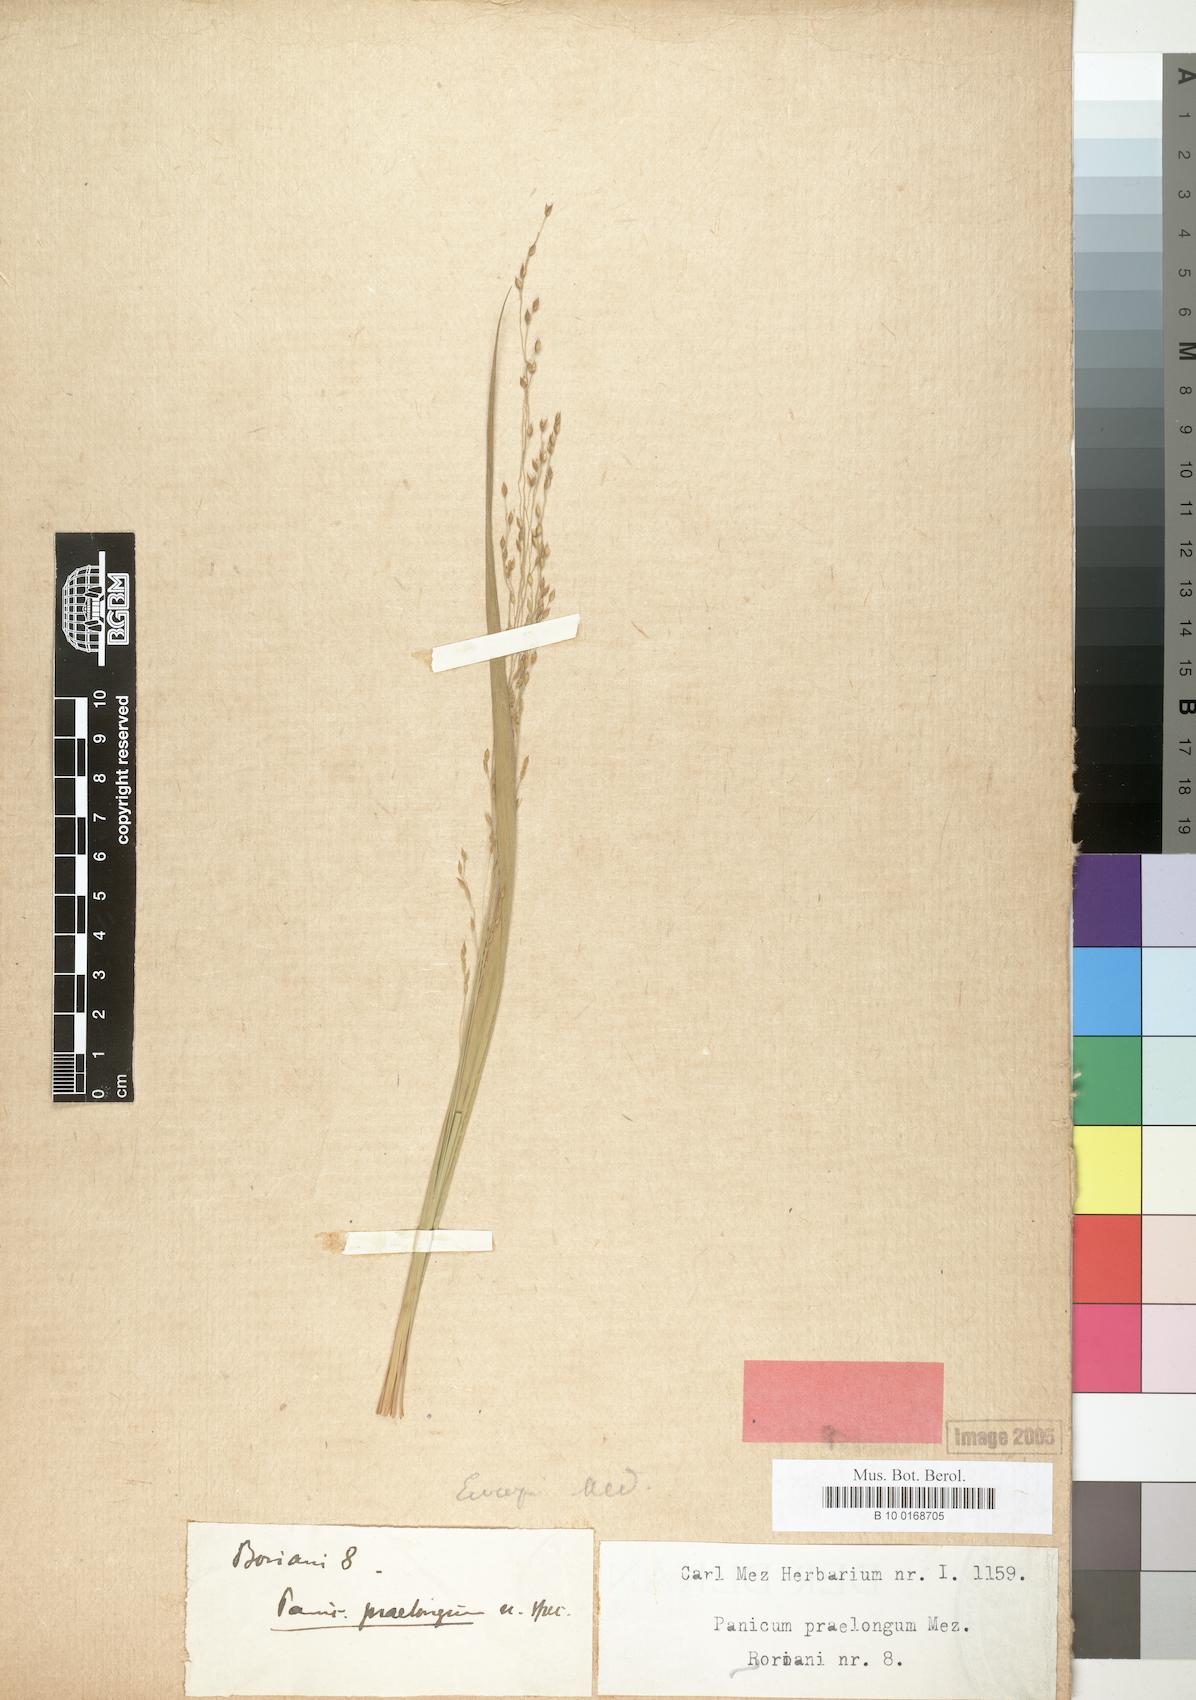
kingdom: Plantae
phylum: Tracheophyta
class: Liliopsida
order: Poales
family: Poaceae
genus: Panicum
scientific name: Panicum porphyrrhizos
